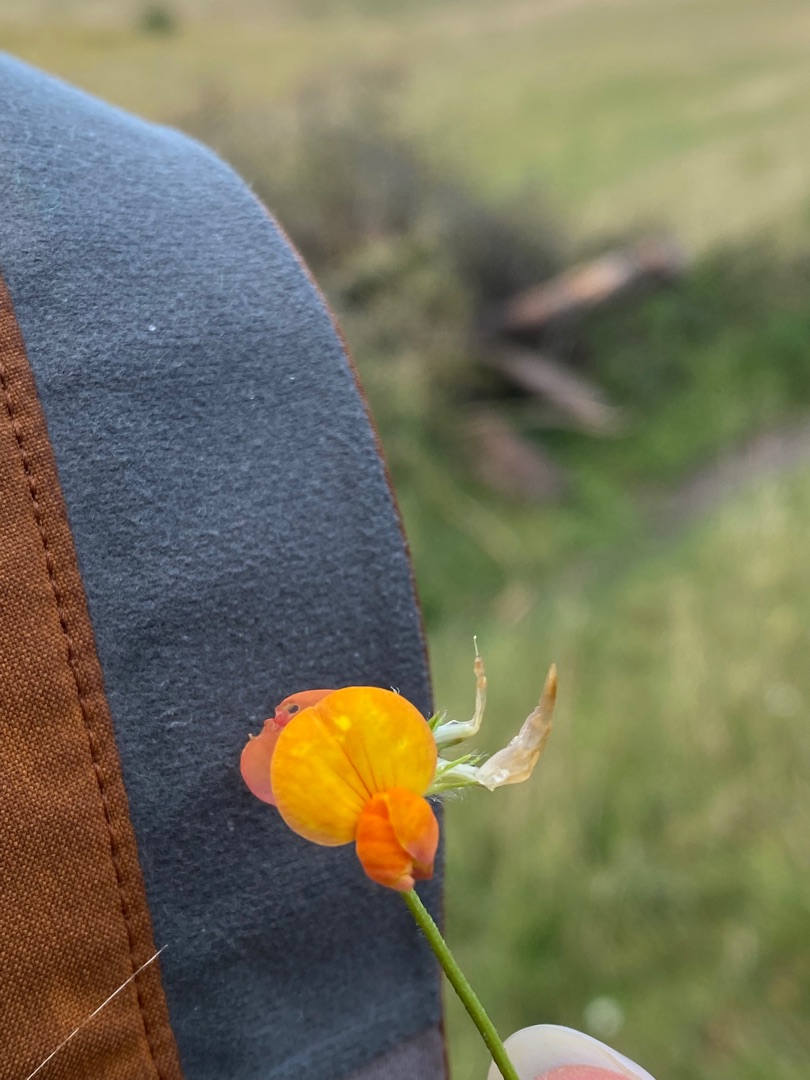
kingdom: Plantae
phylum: Tracheophyta
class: Magnoliopsida
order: Fabales
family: Fabaceae
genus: Lotus
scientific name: Lotus corniculatus
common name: Almindelig kællingetand
